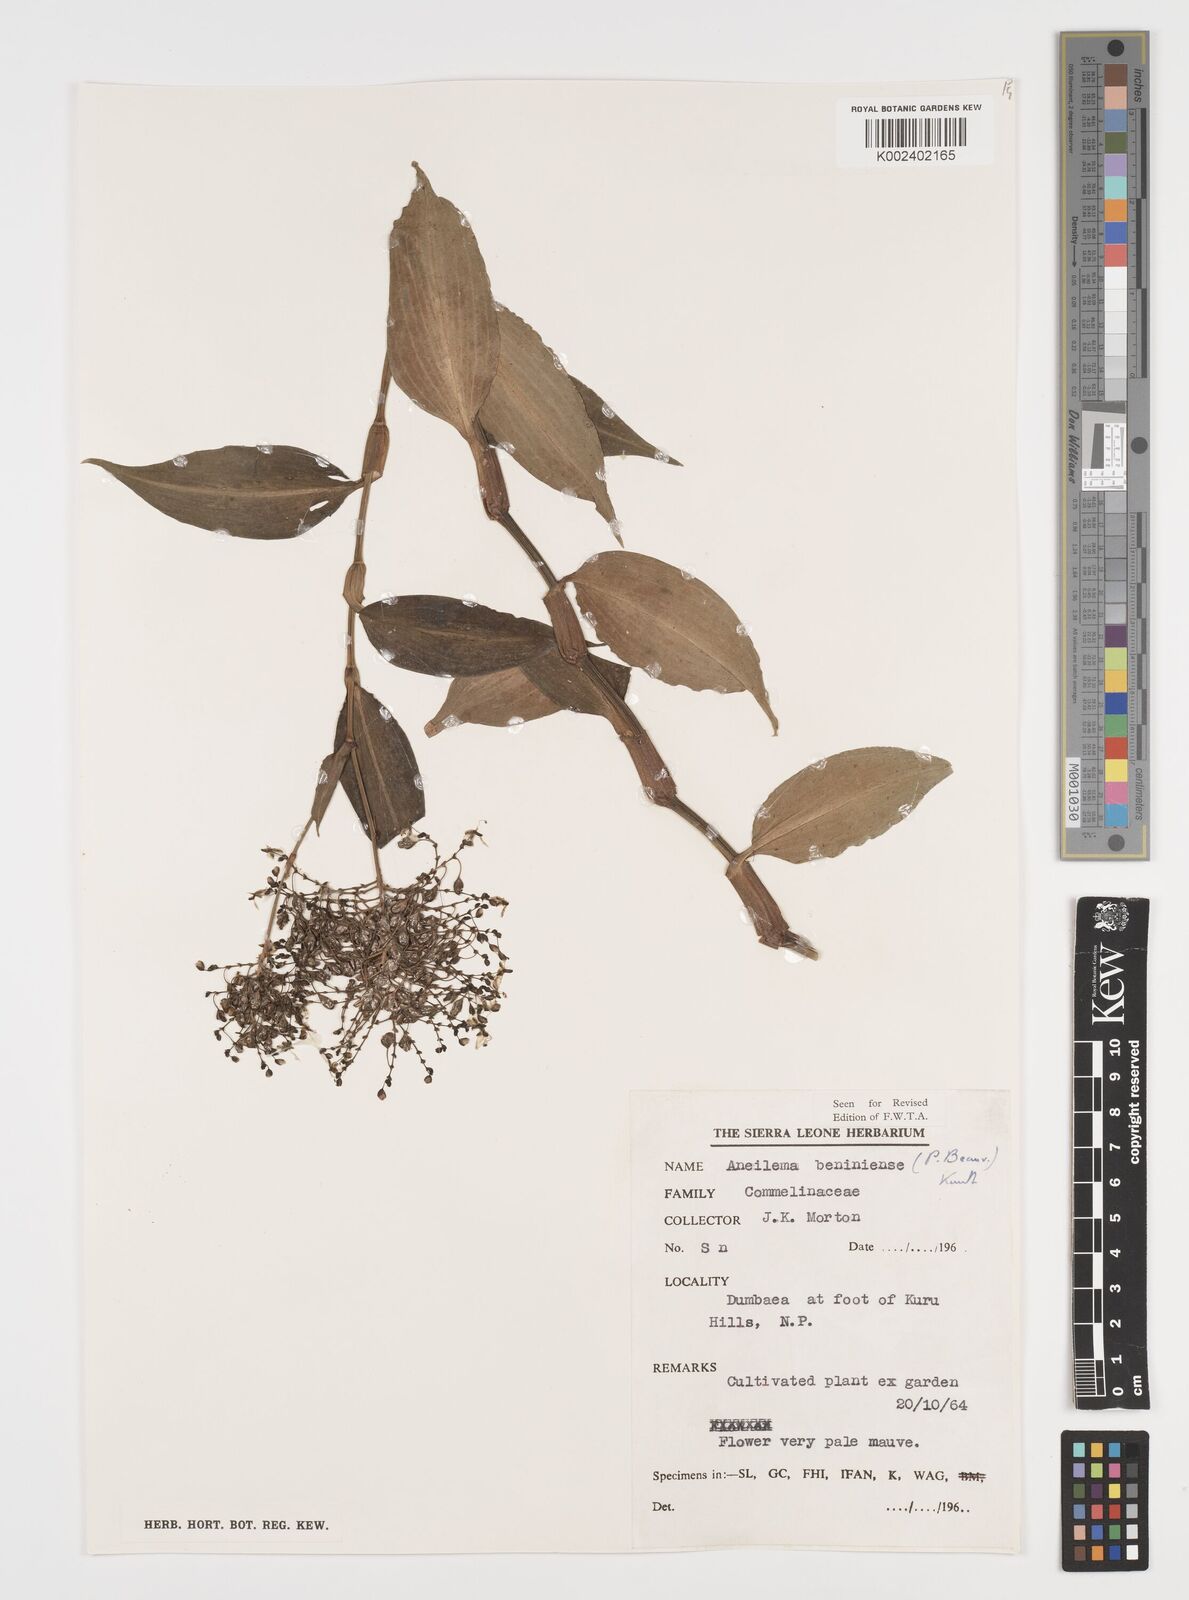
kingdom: Plantae
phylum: Tracheophyta
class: Liliopsida
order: Commelinales
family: Commelinaceae
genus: Aneilema
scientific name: Aneilema beniniense
